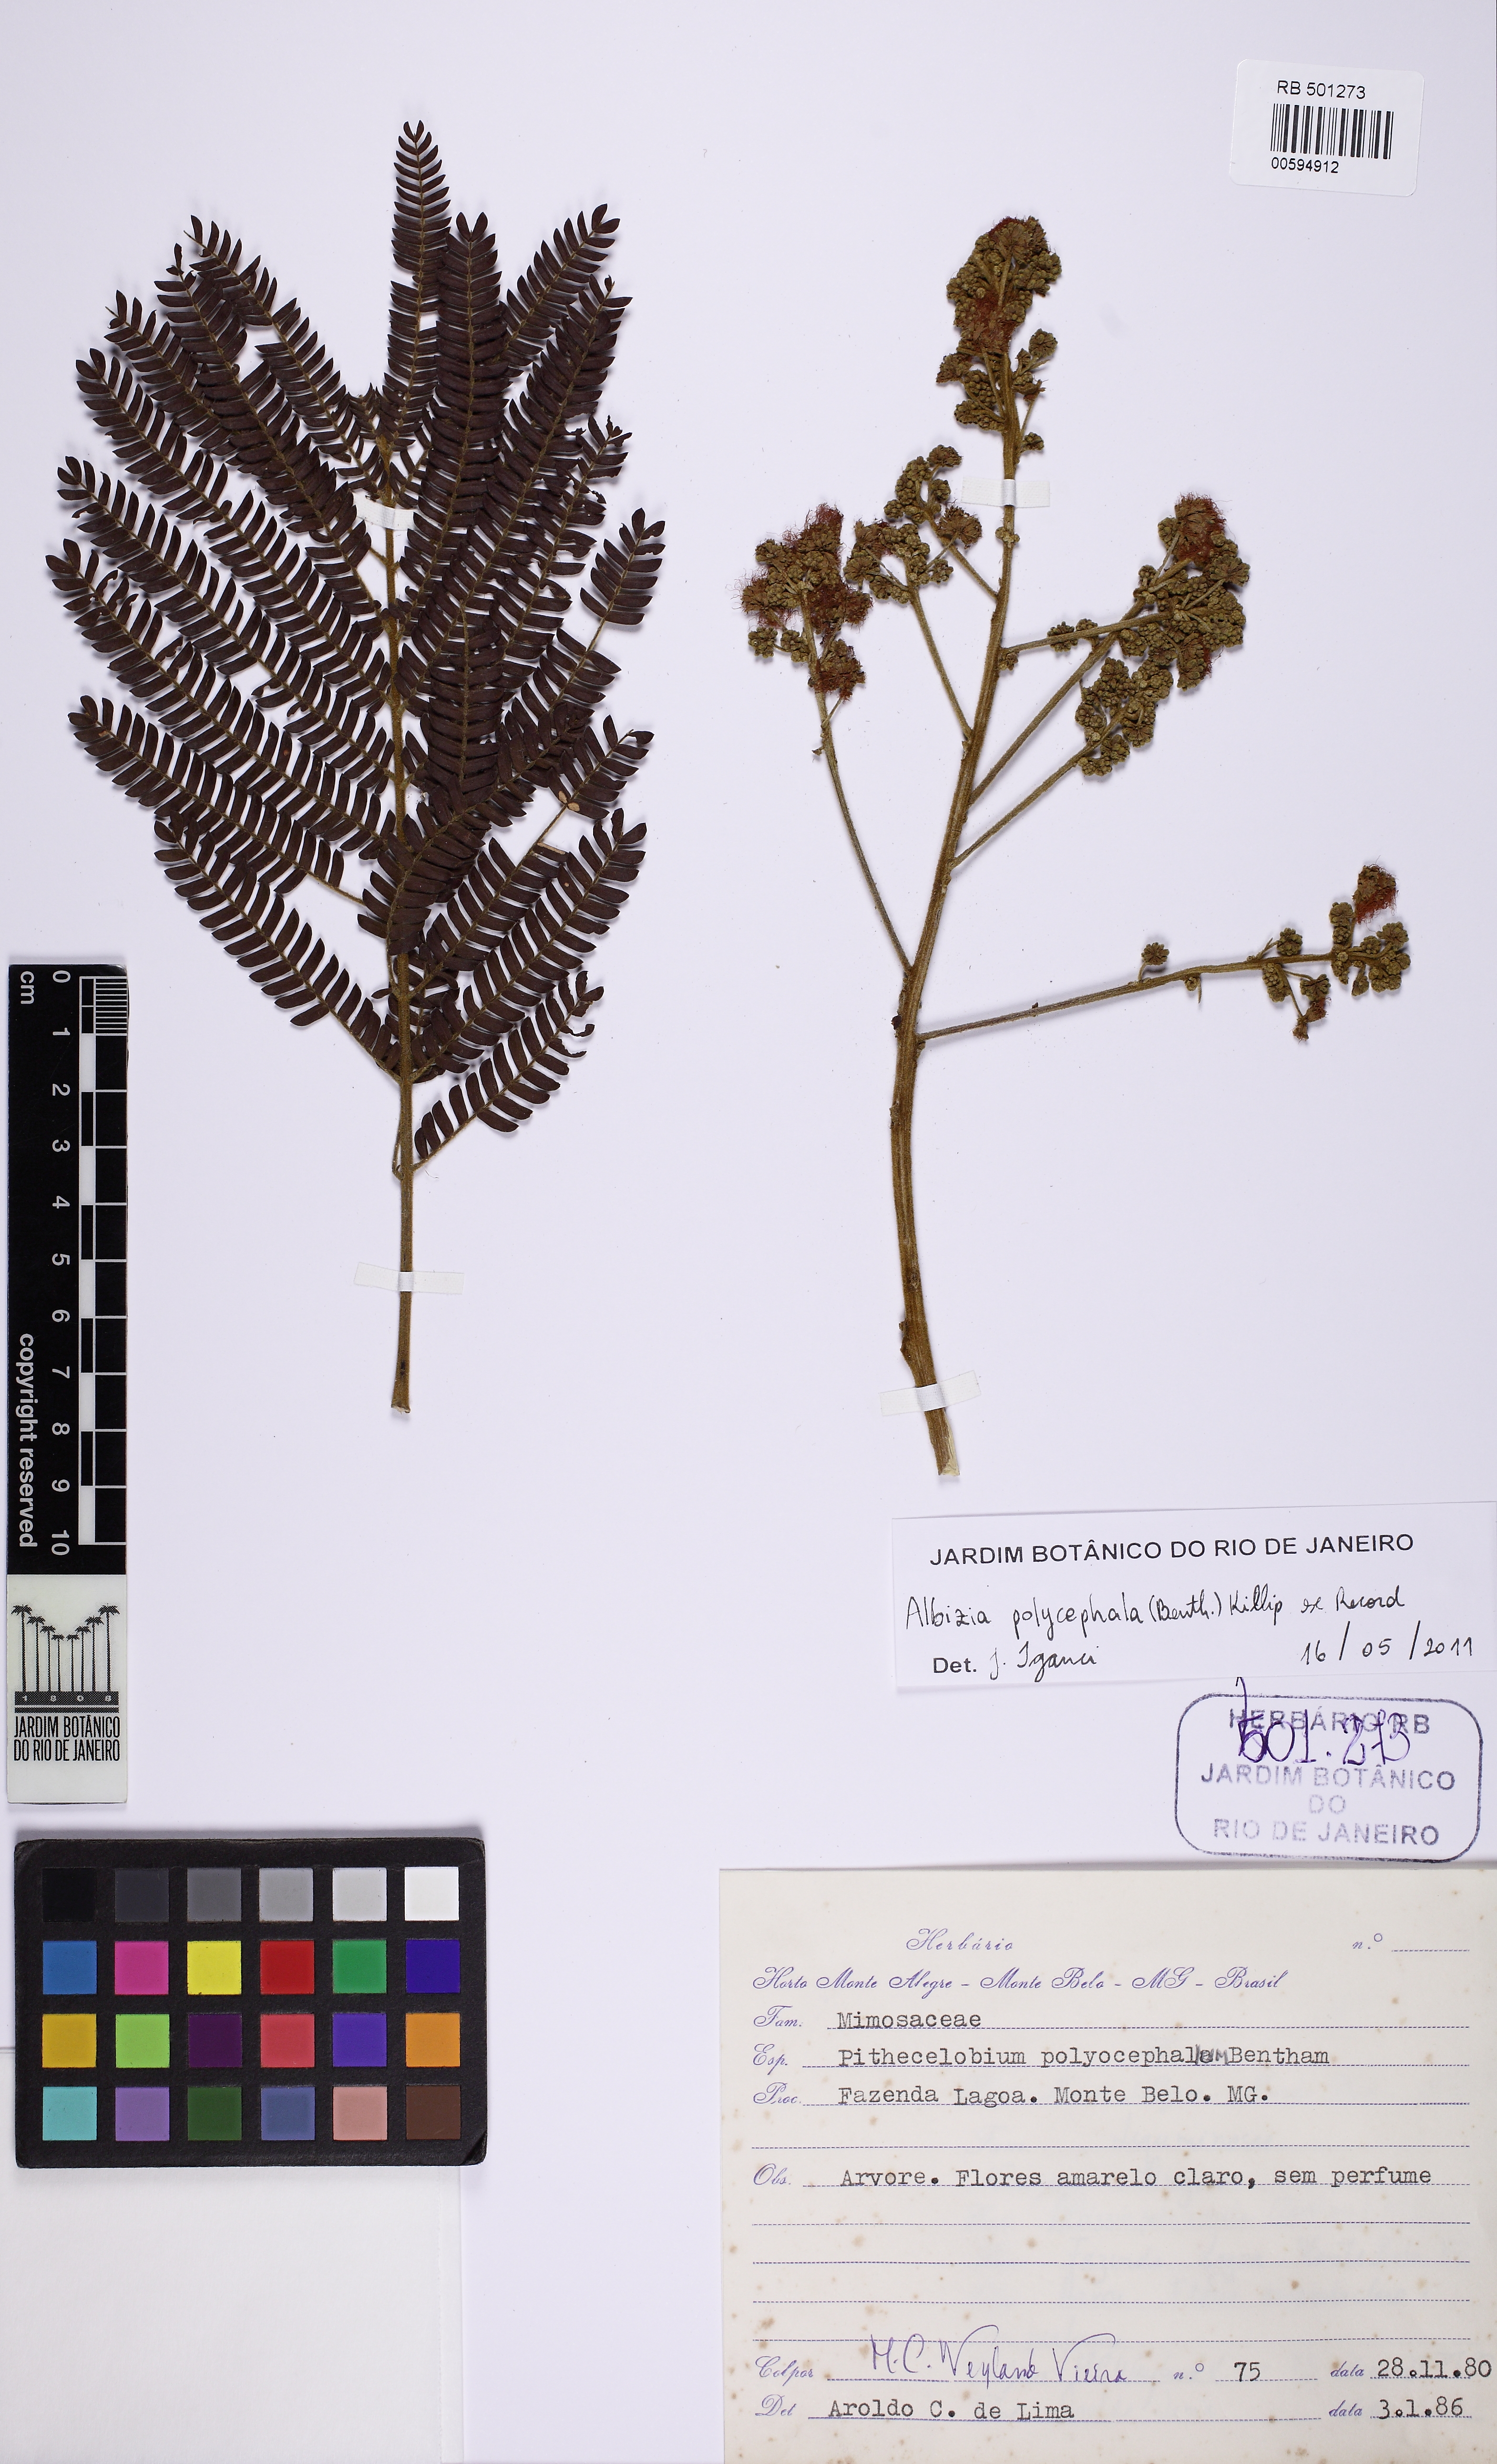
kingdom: Plantae
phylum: Tracheophyta
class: Magnoliopsida
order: Fabales
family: Fabaceae
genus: Albizia
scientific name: Albizia polycephala
